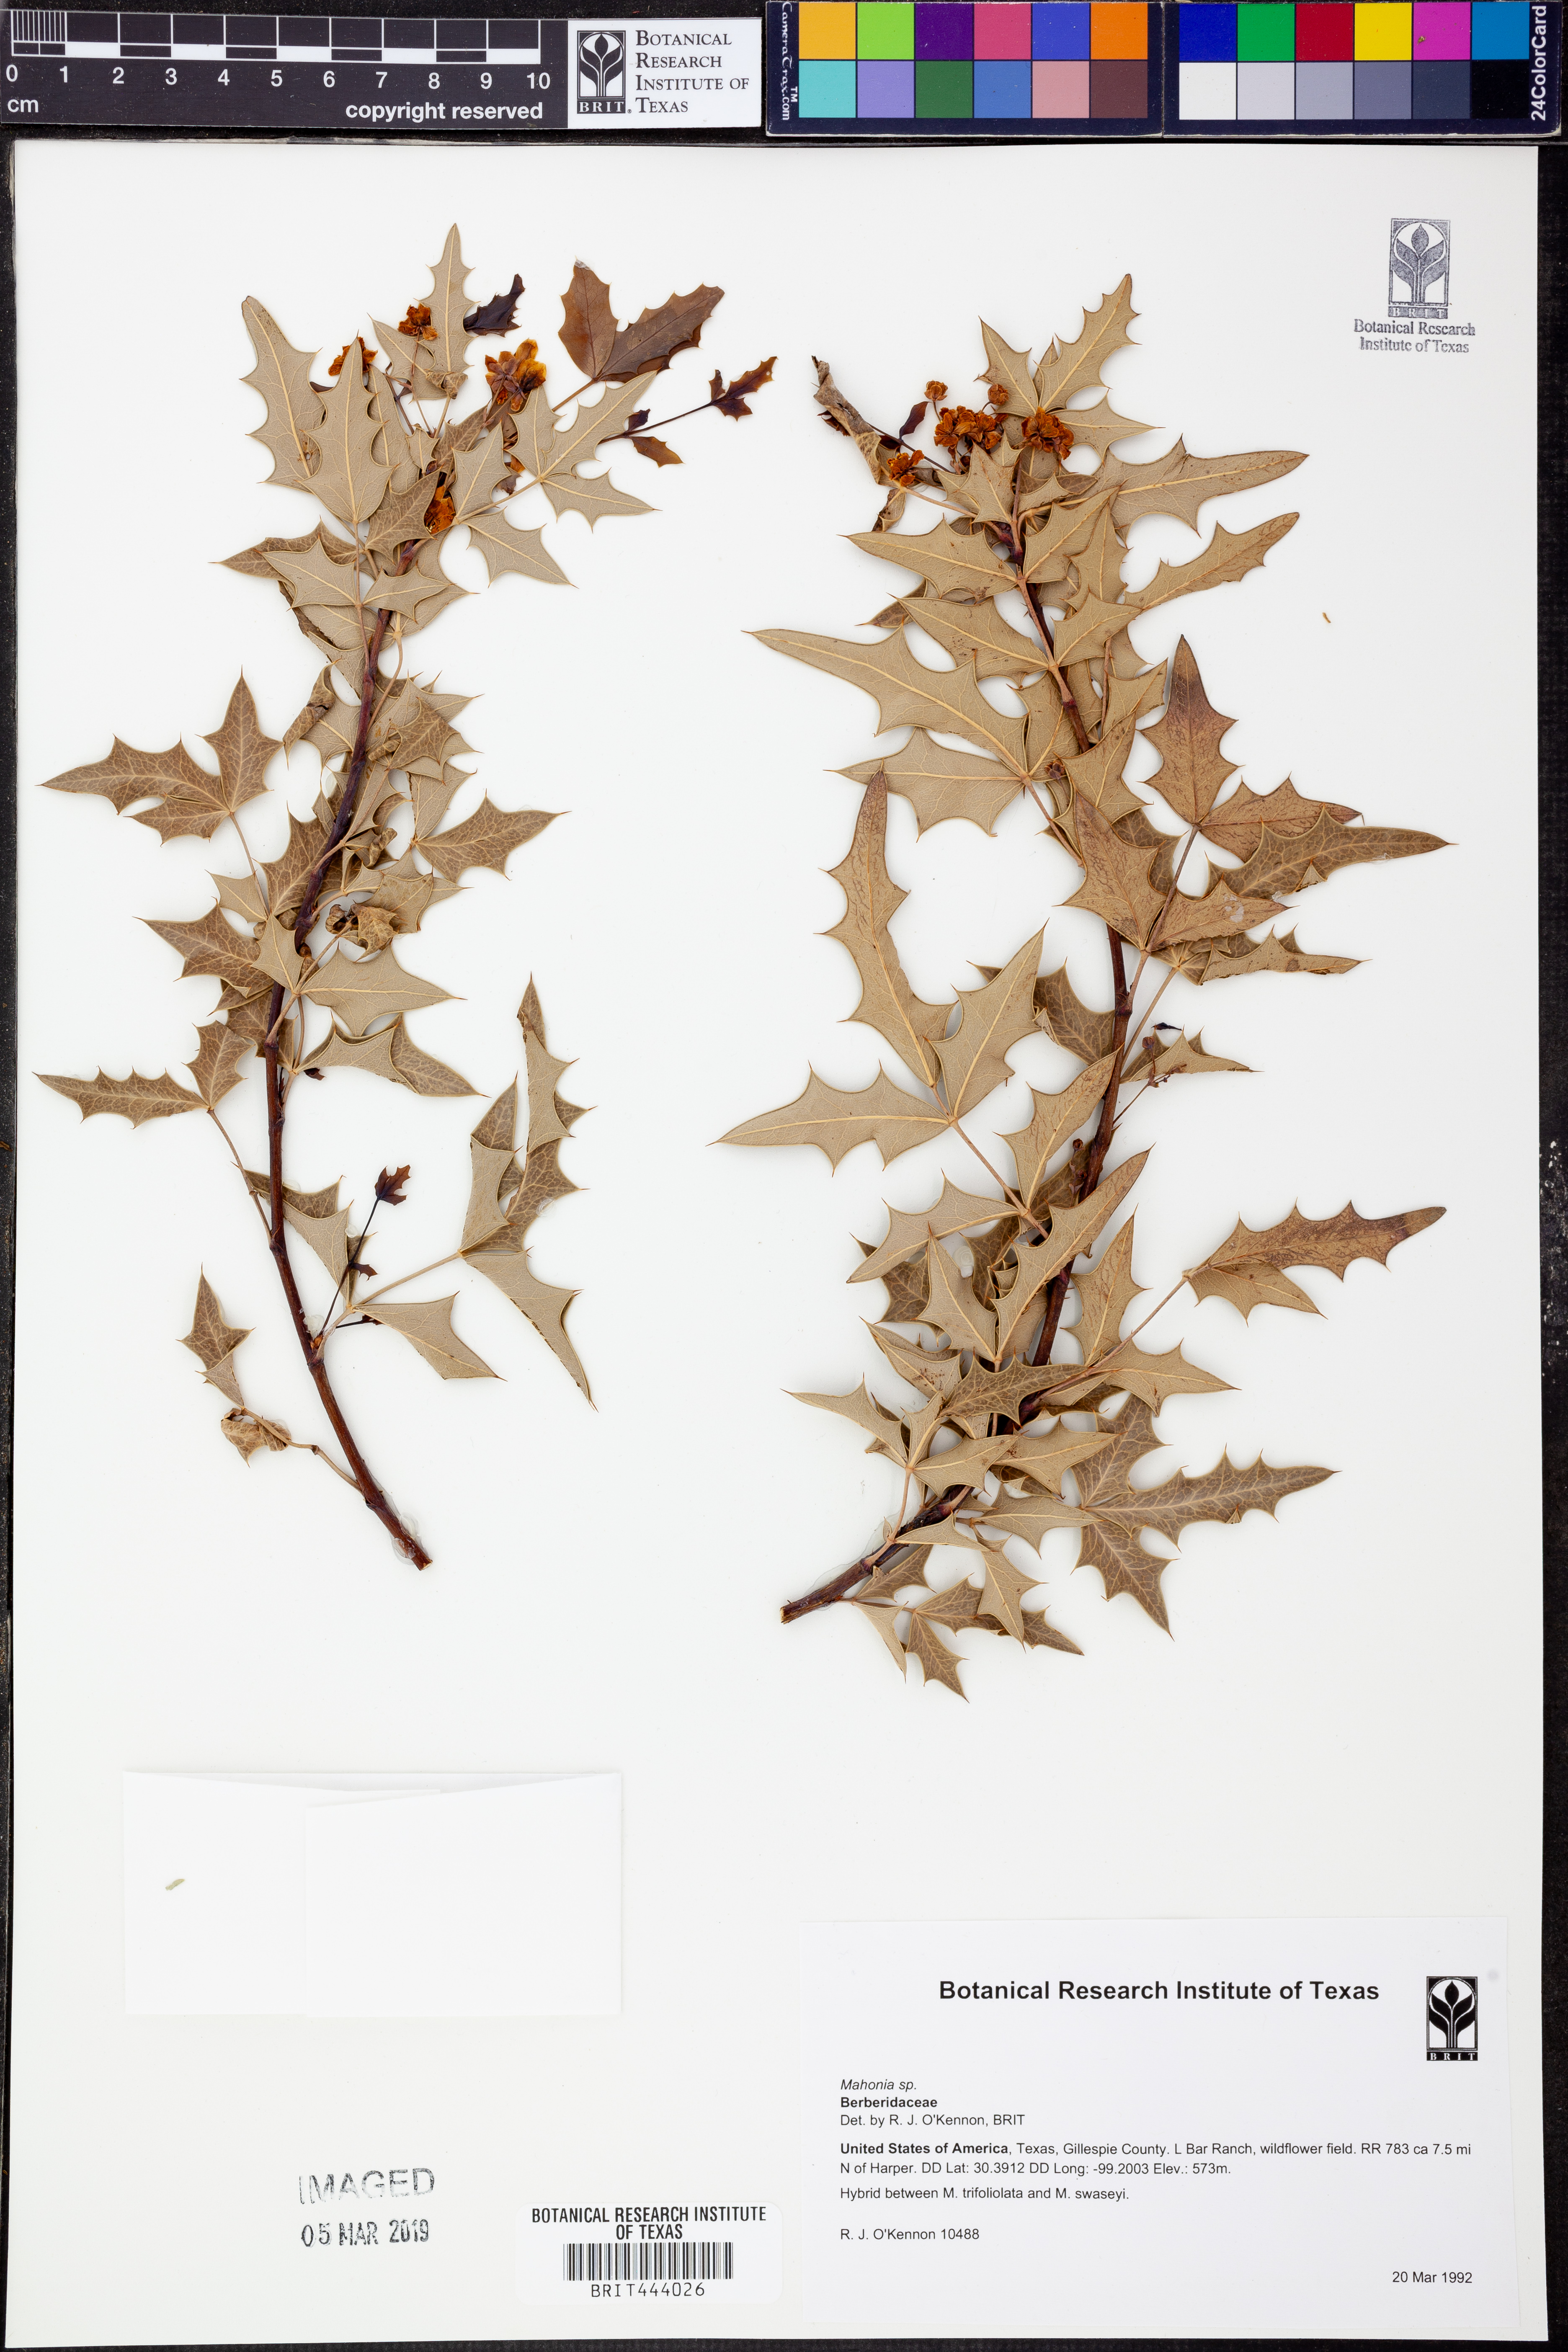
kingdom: Plantae
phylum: Tracheophyta
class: Magnoliopsida
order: Ranunculales
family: Berberidaceae
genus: Mahonia
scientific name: Mahonia
